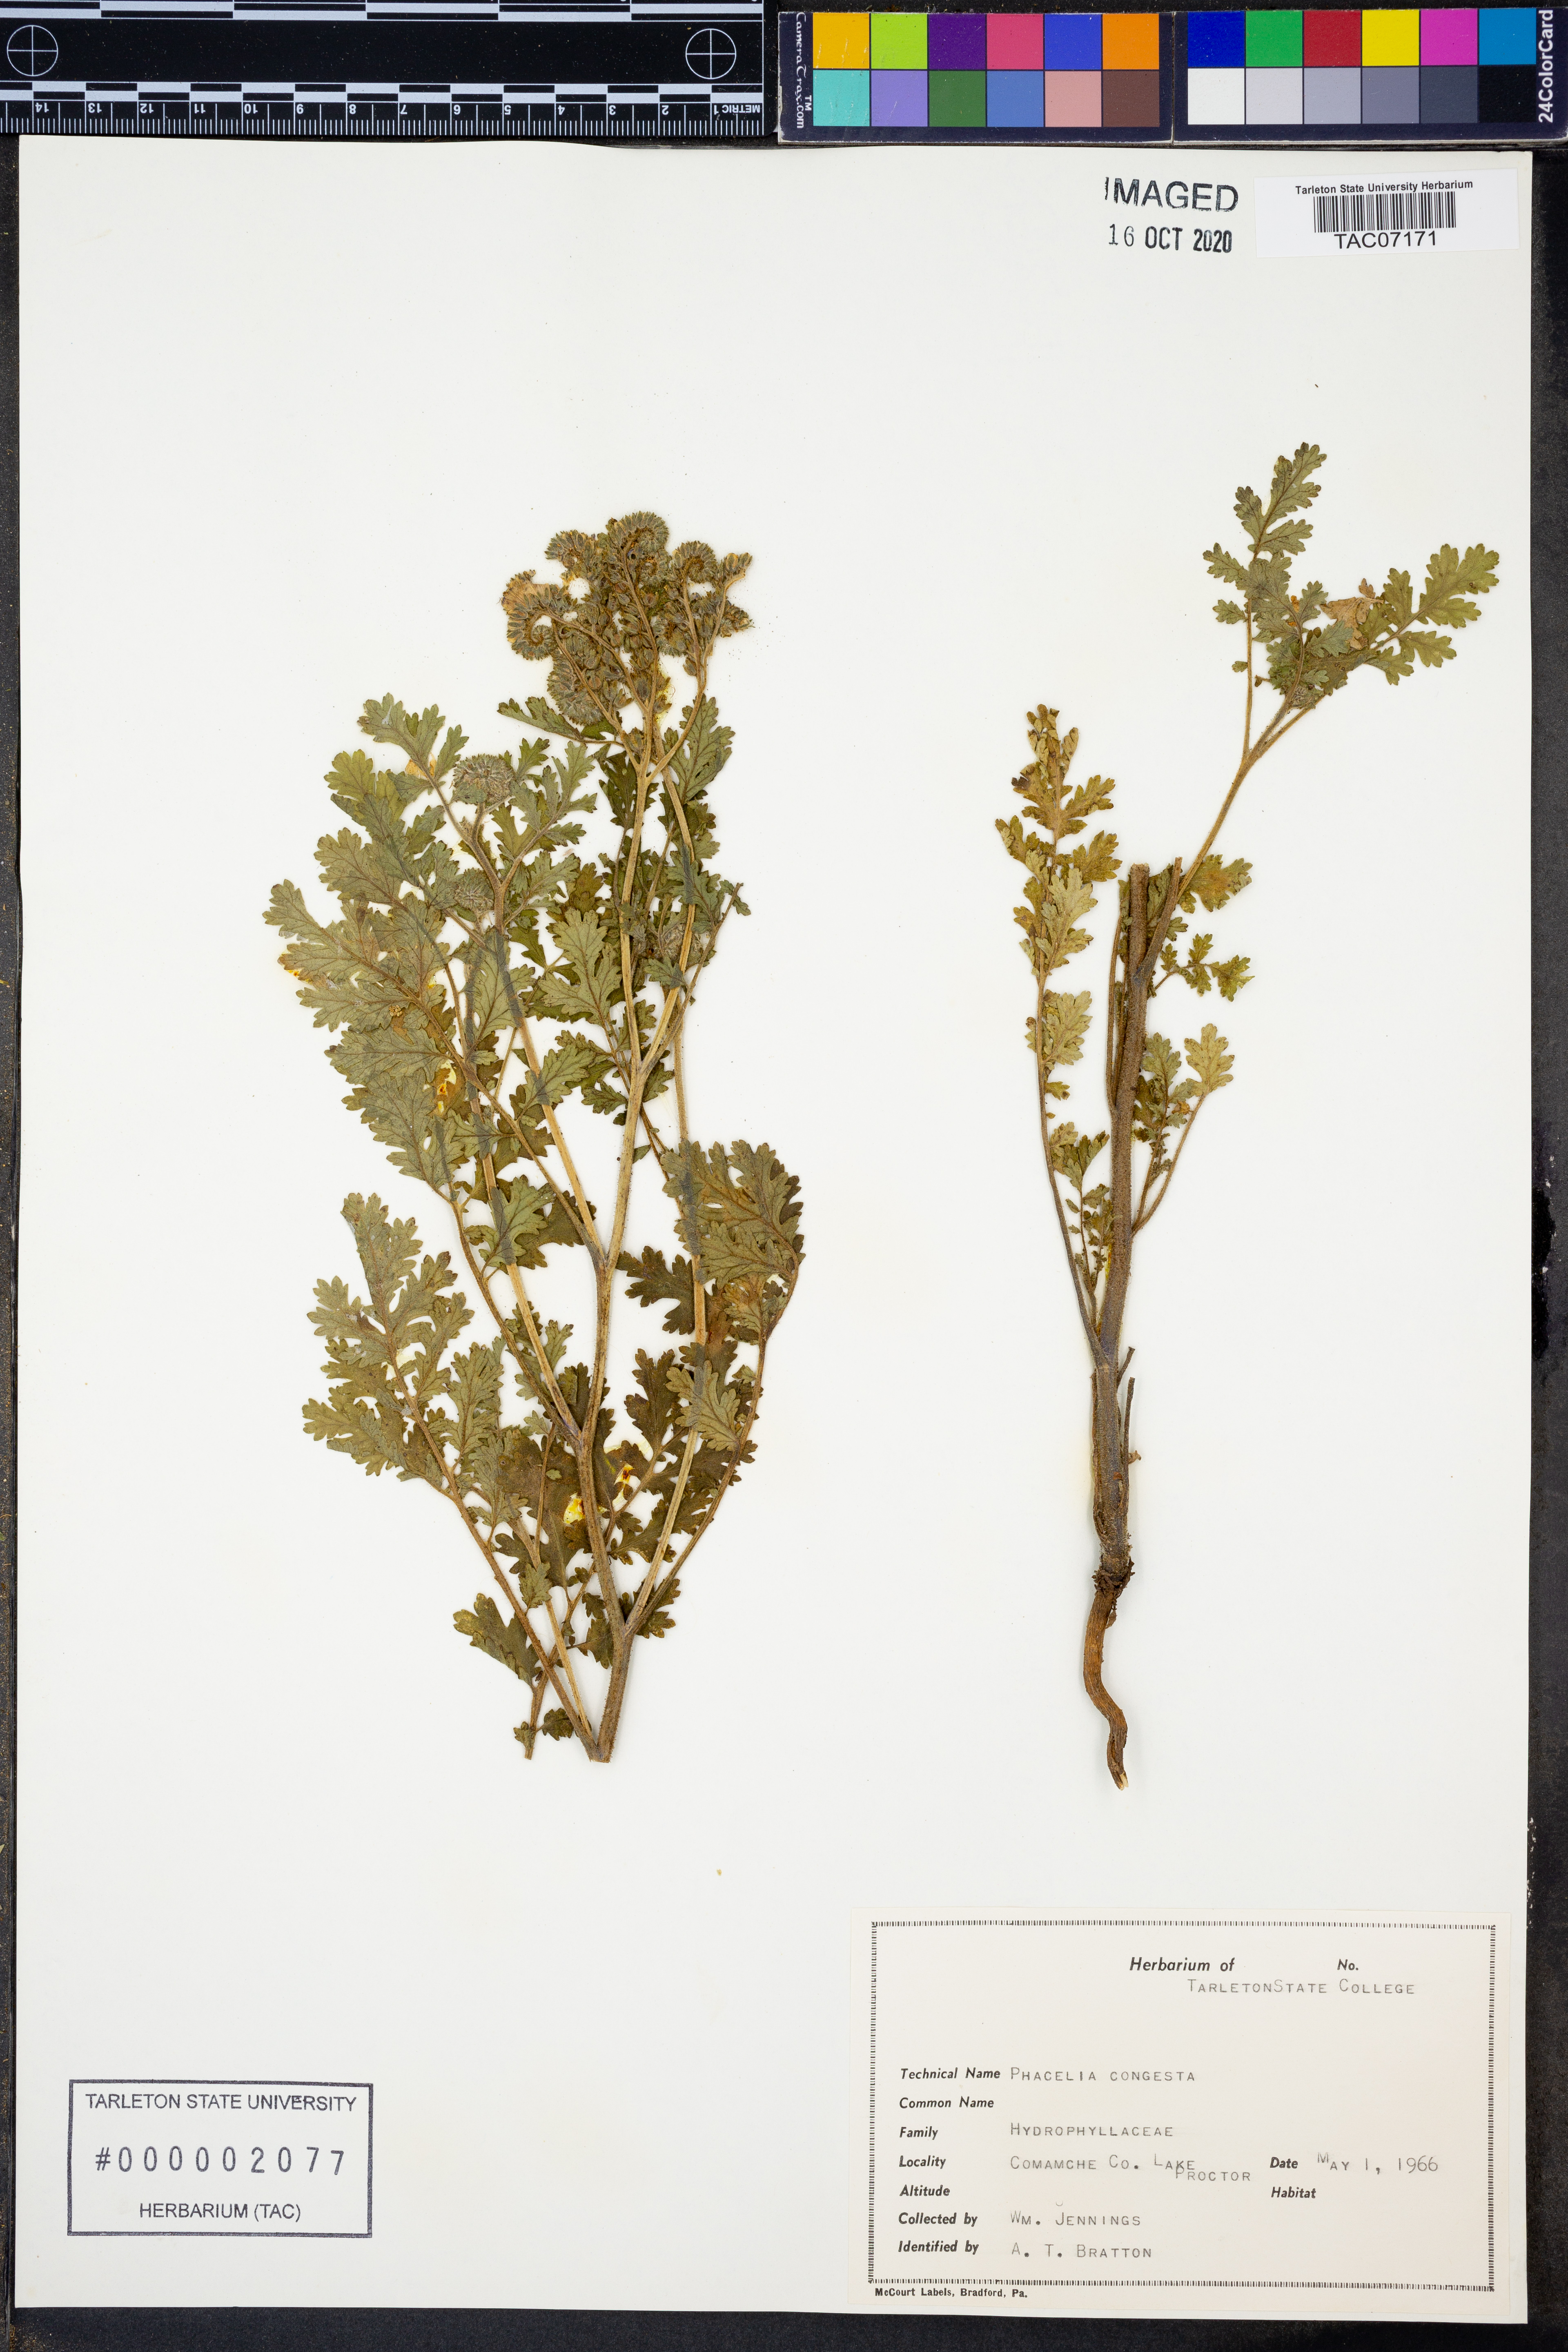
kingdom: Plantae
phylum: Tracheophyta
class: Magnoliopsida
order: Boraginales
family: Hydrophyllaceae
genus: Phacelia
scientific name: Phacelia congesta
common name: Blue curls
